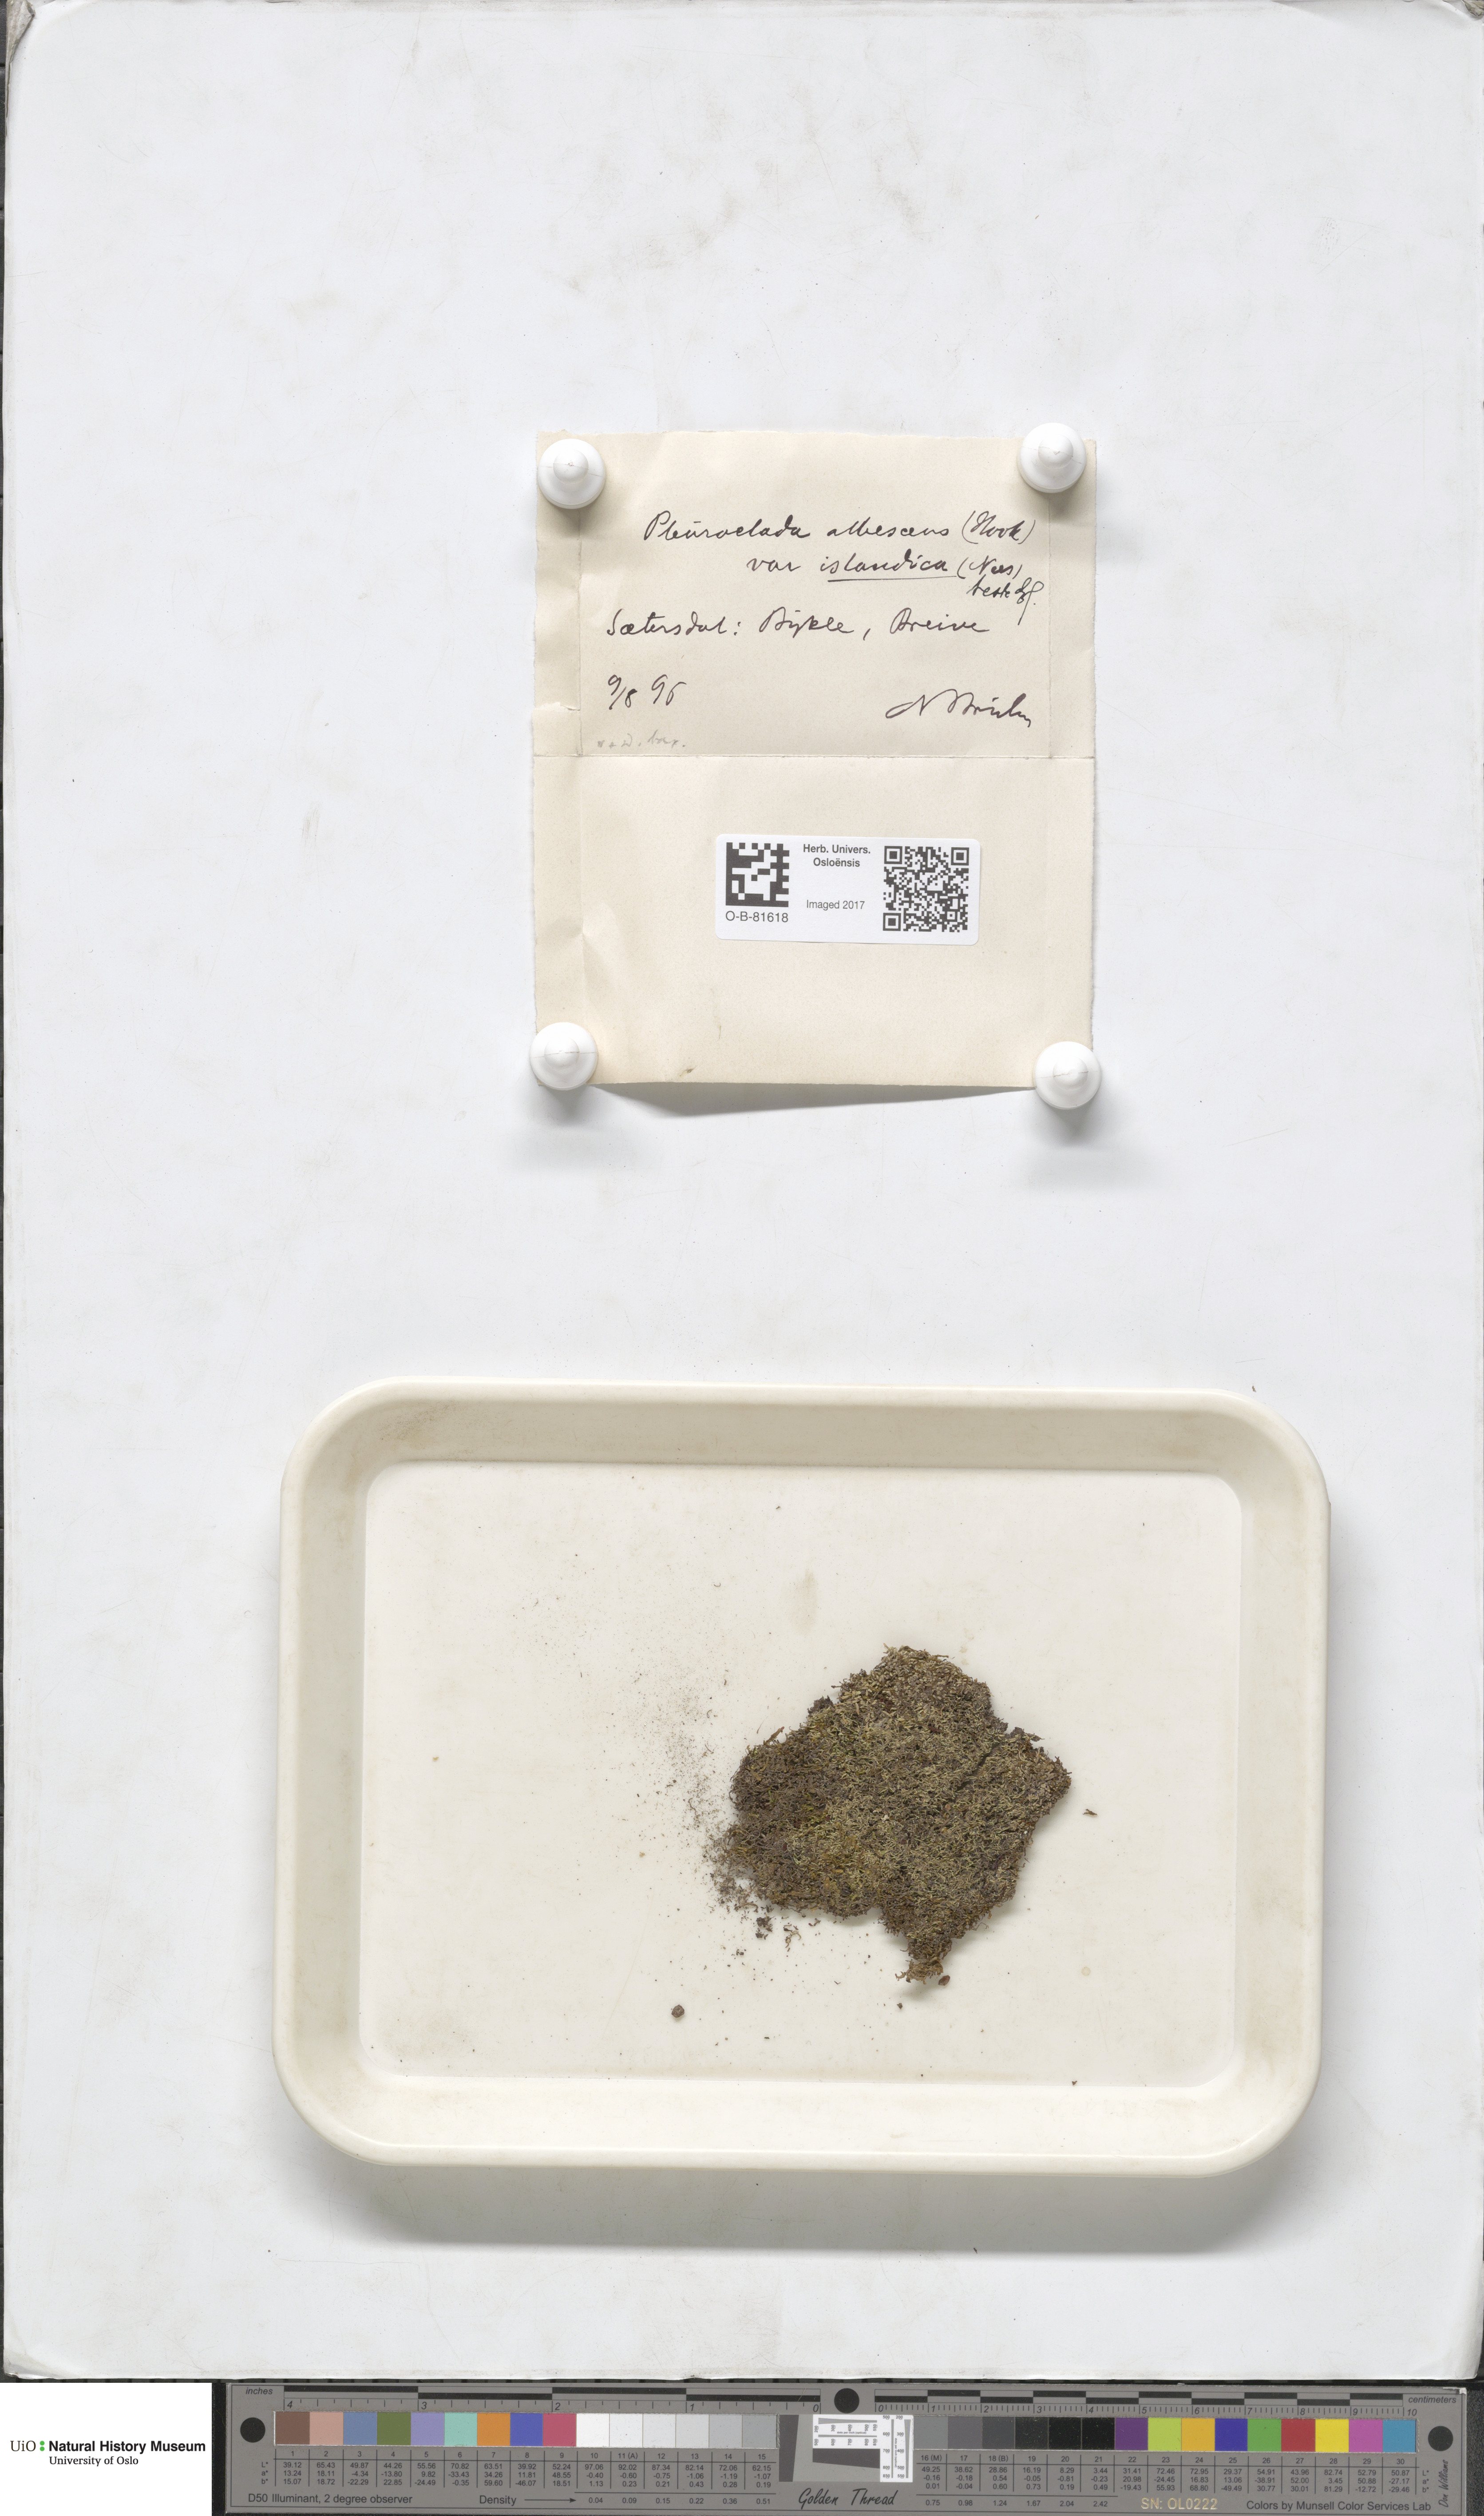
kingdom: Plantae
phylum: Marchantiophyta
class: Jungermanniopsida
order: Jungermanniales
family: Cephaloziaceae
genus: Fuscocephaloziopsis
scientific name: Fuscocephaloziopsis albescens
